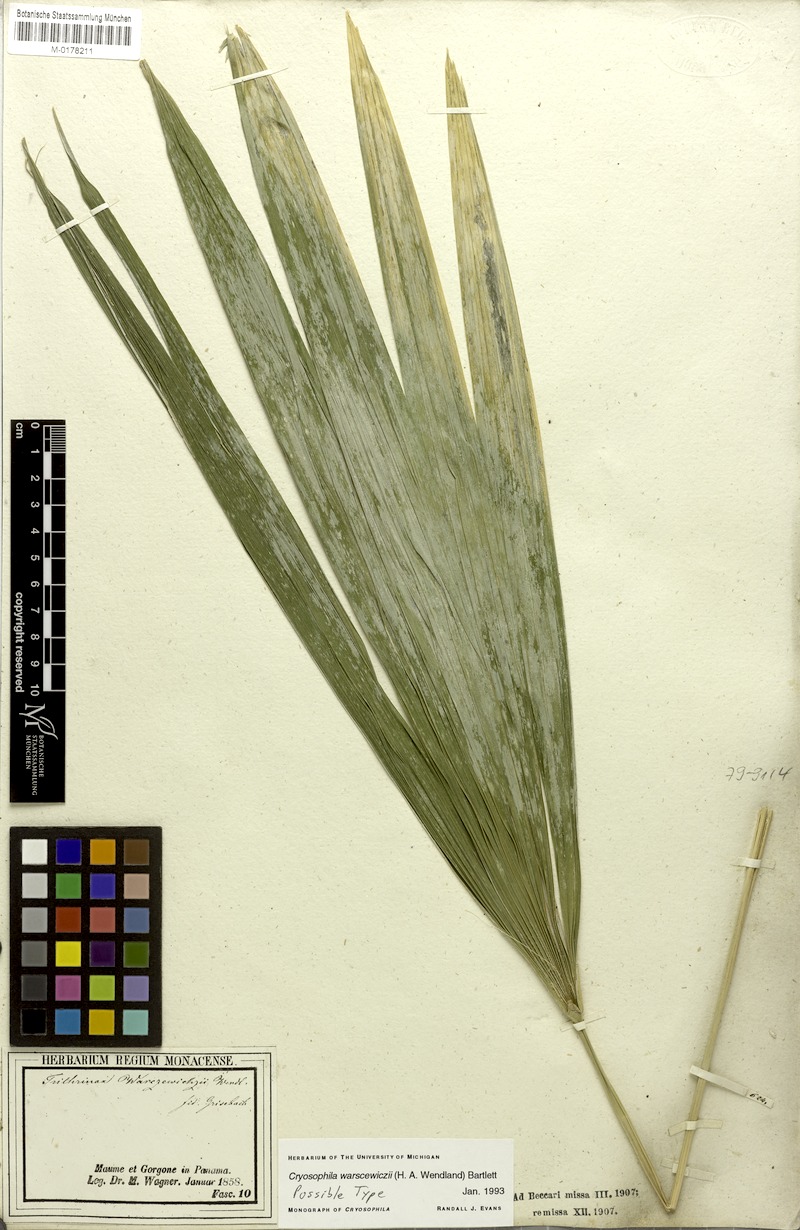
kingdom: Plantae
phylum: Tracheophyta
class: Liliopsida
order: Arecales
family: Arecaceae
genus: Cryosophila
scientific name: Cryosophila warscewiczii
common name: Root-spine palm
